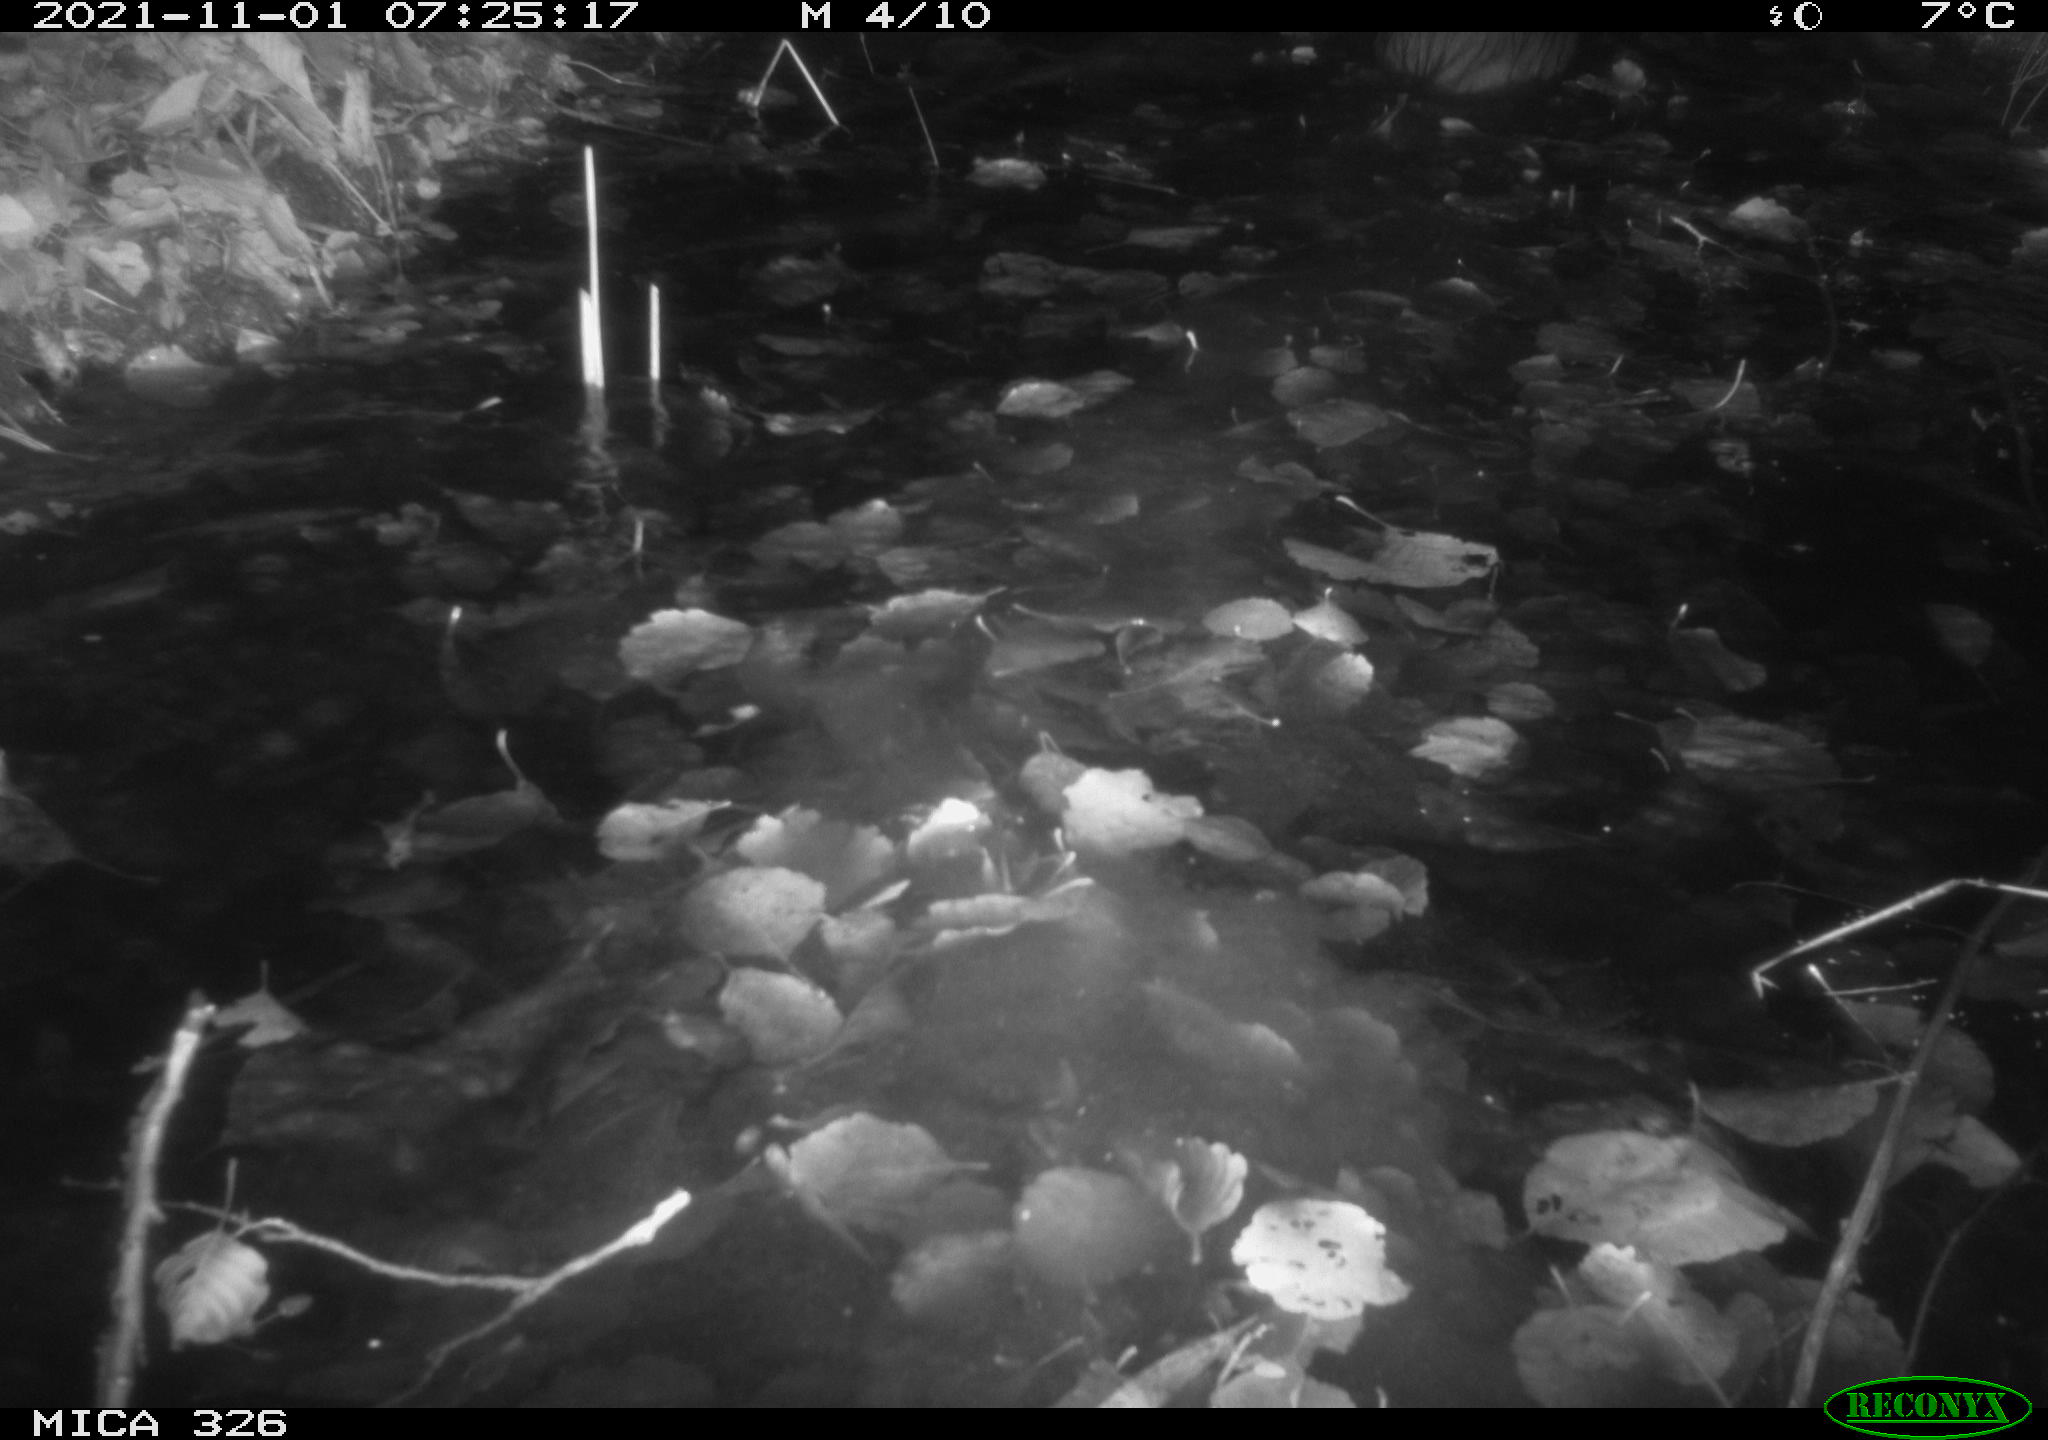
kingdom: Animalia
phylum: Chordata
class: Mammalia
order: Rodentia
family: Myocastoridae
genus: Myocastor
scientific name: Myocastor coypus
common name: Coypu
